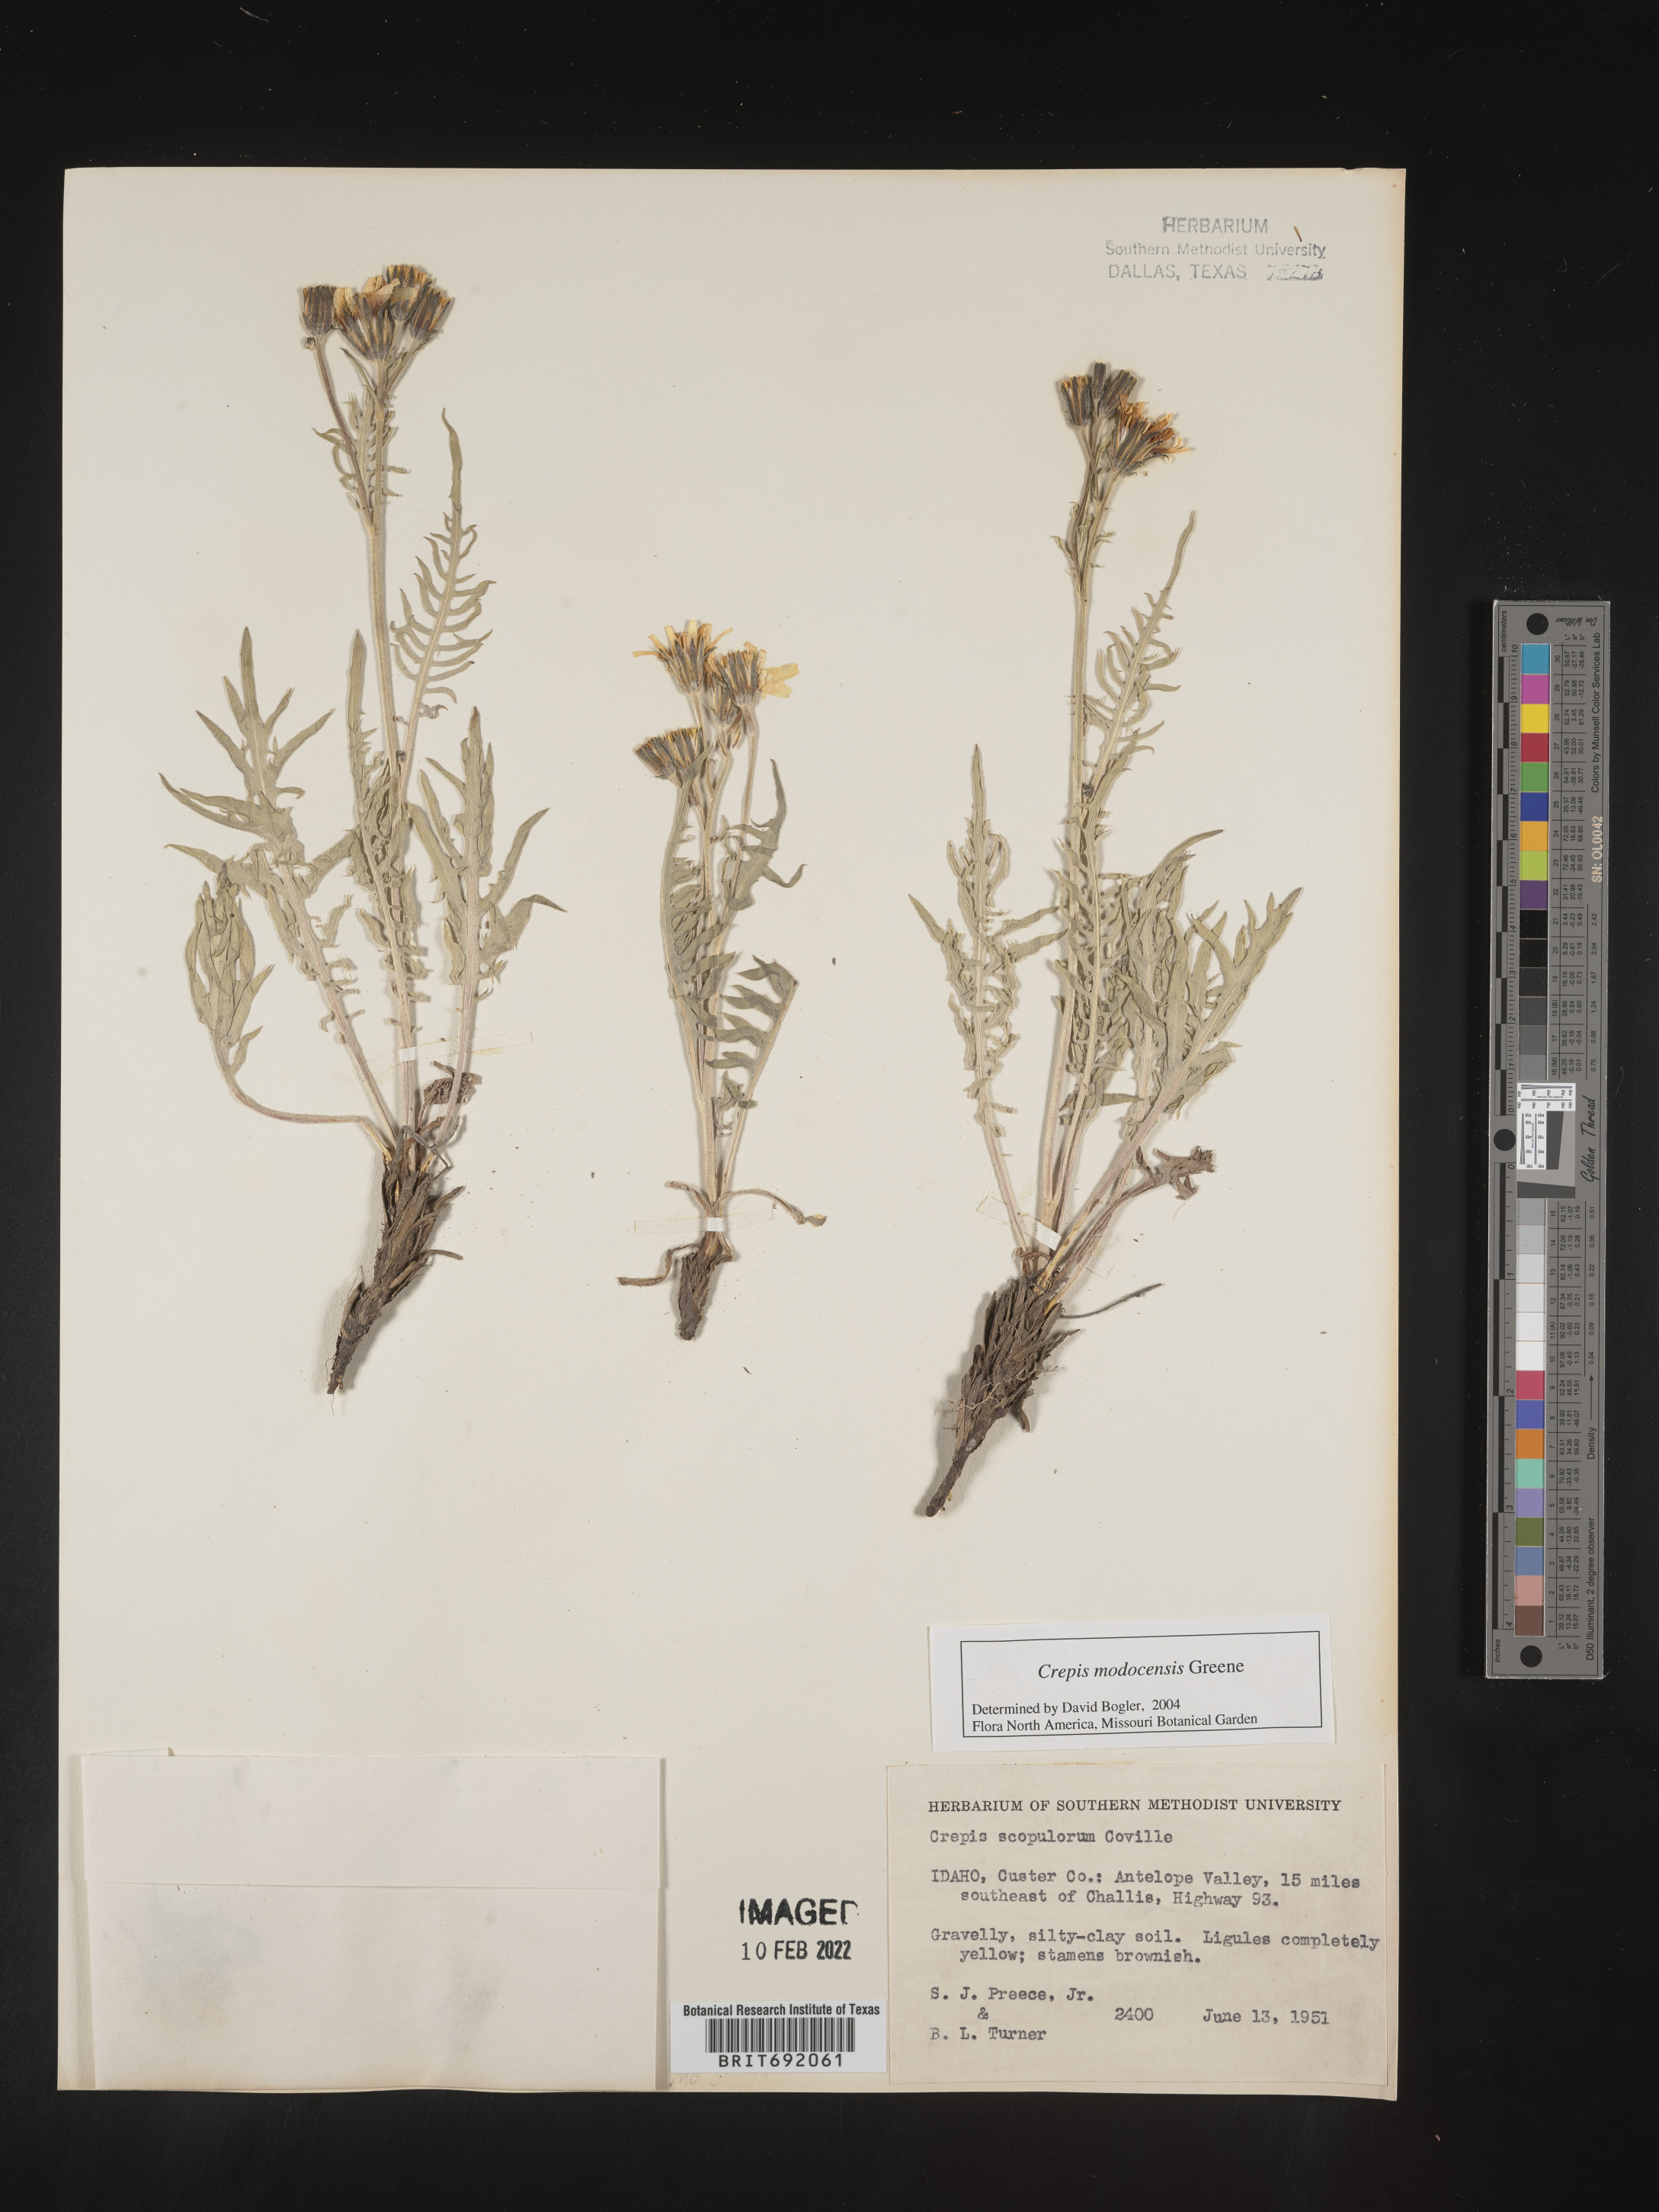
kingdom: Plantae
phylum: Tracheophyta
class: Magnoliopsida
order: Asterales
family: Asteraceae
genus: Crepis
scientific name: Crepis
